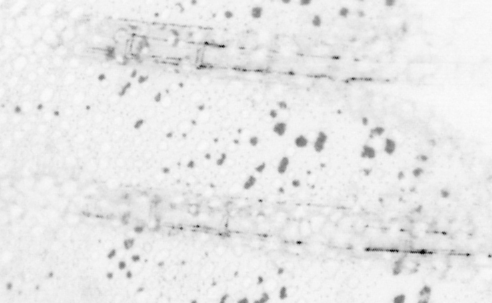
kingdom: Animalia
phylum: Chordata
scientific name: Chordata
